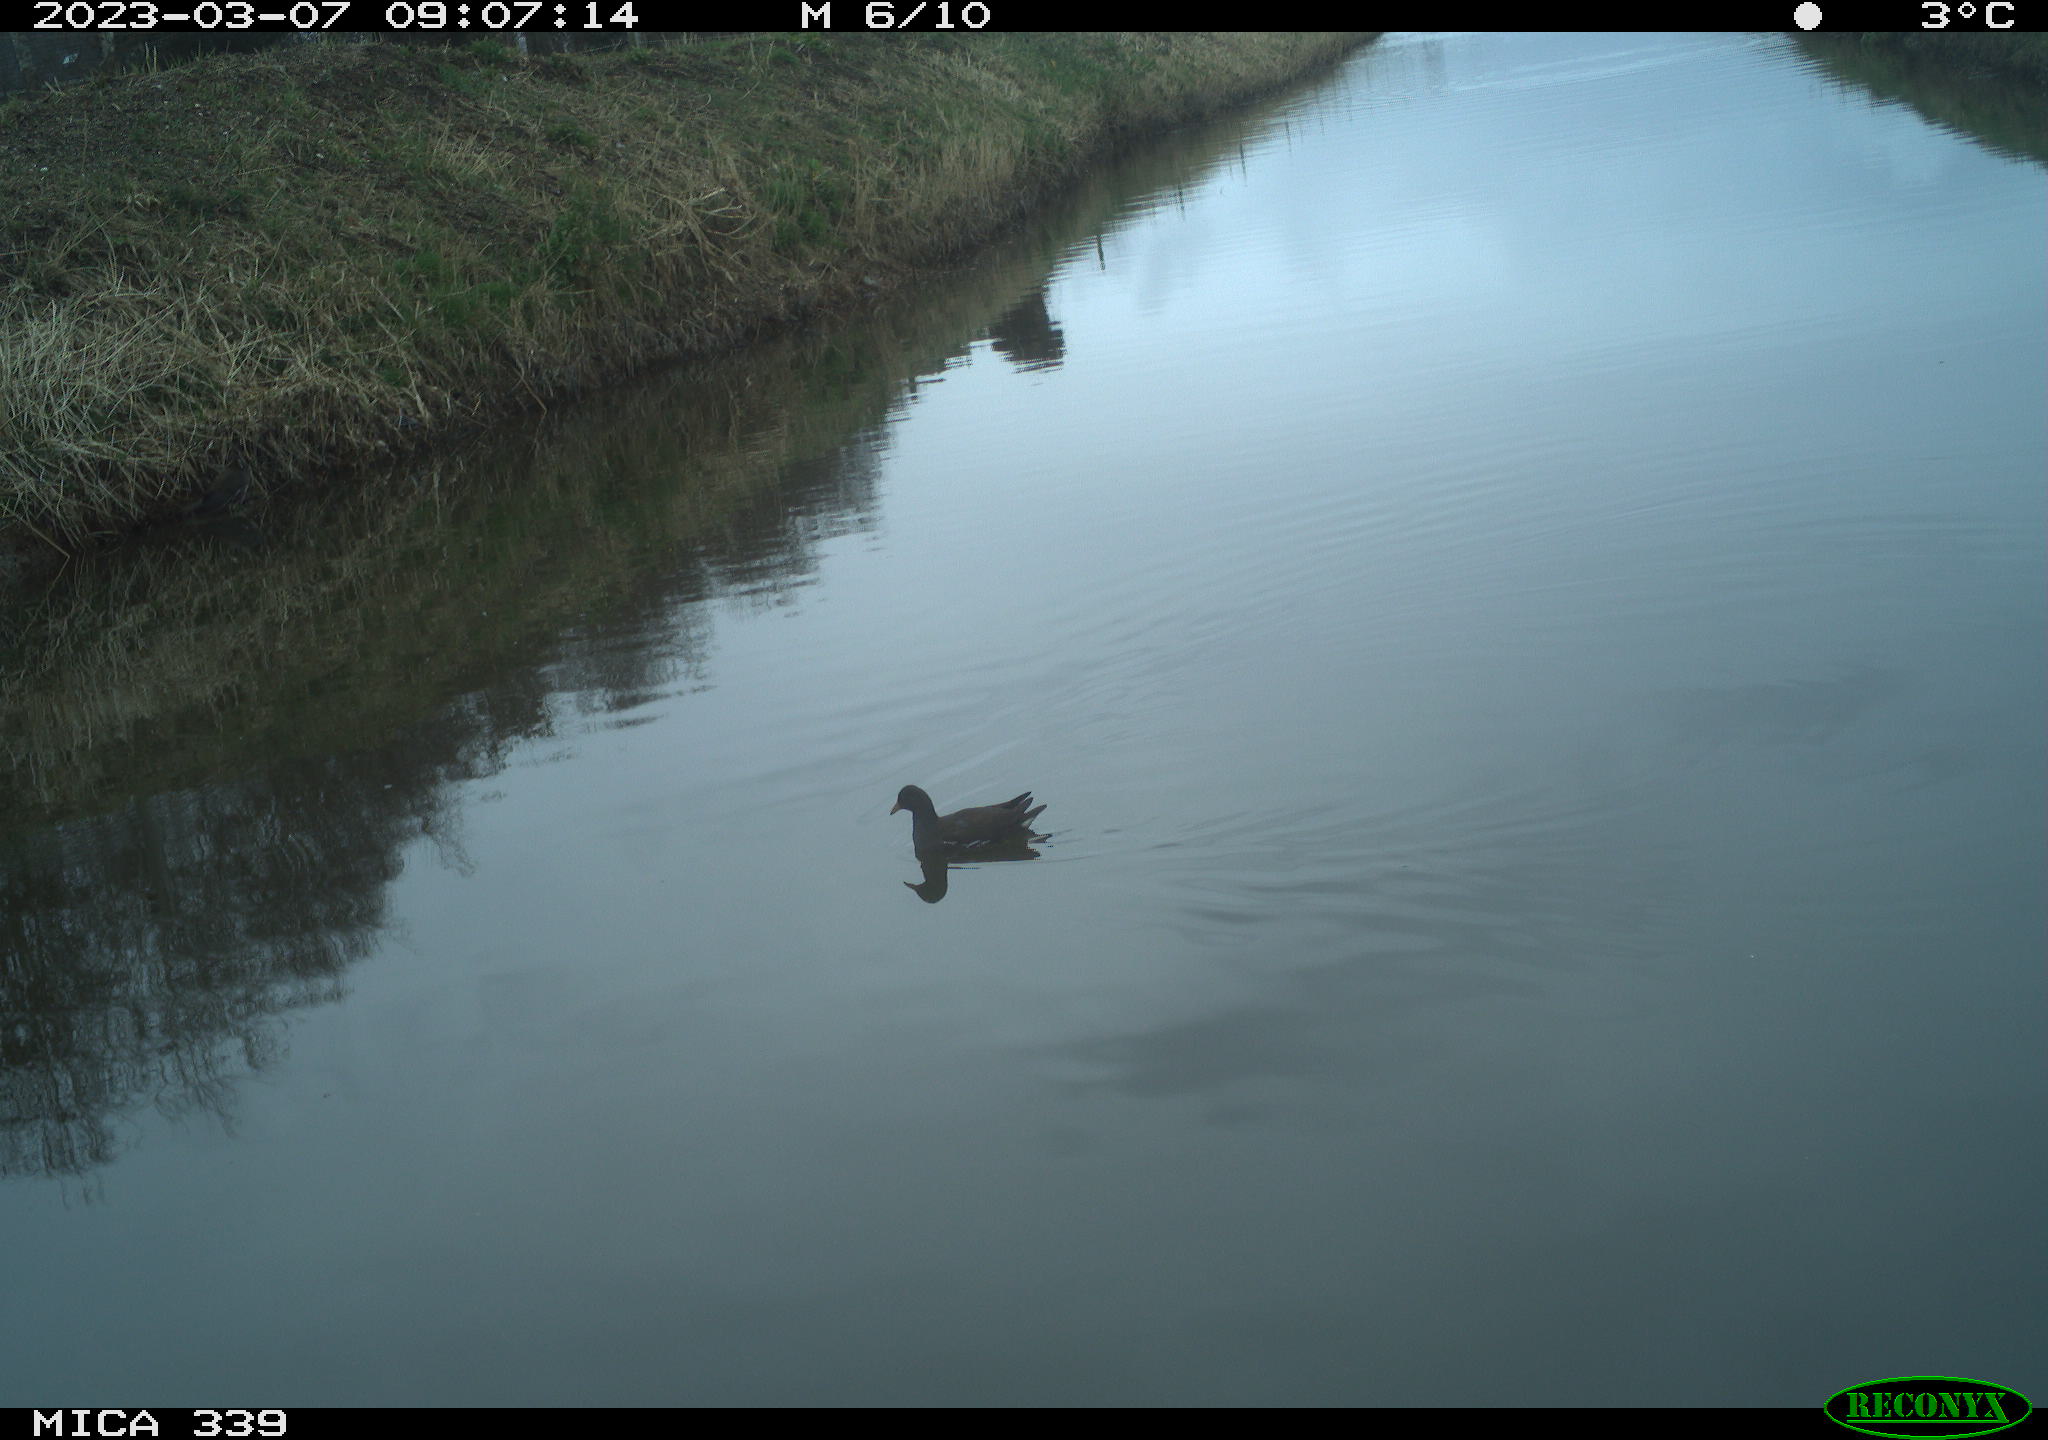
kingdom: Animalia
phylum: Chordata
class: Aves
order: Gruiformes
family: Rallidae
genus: Gallinula
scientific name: Gallinula chloropus
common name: Common moorhen
